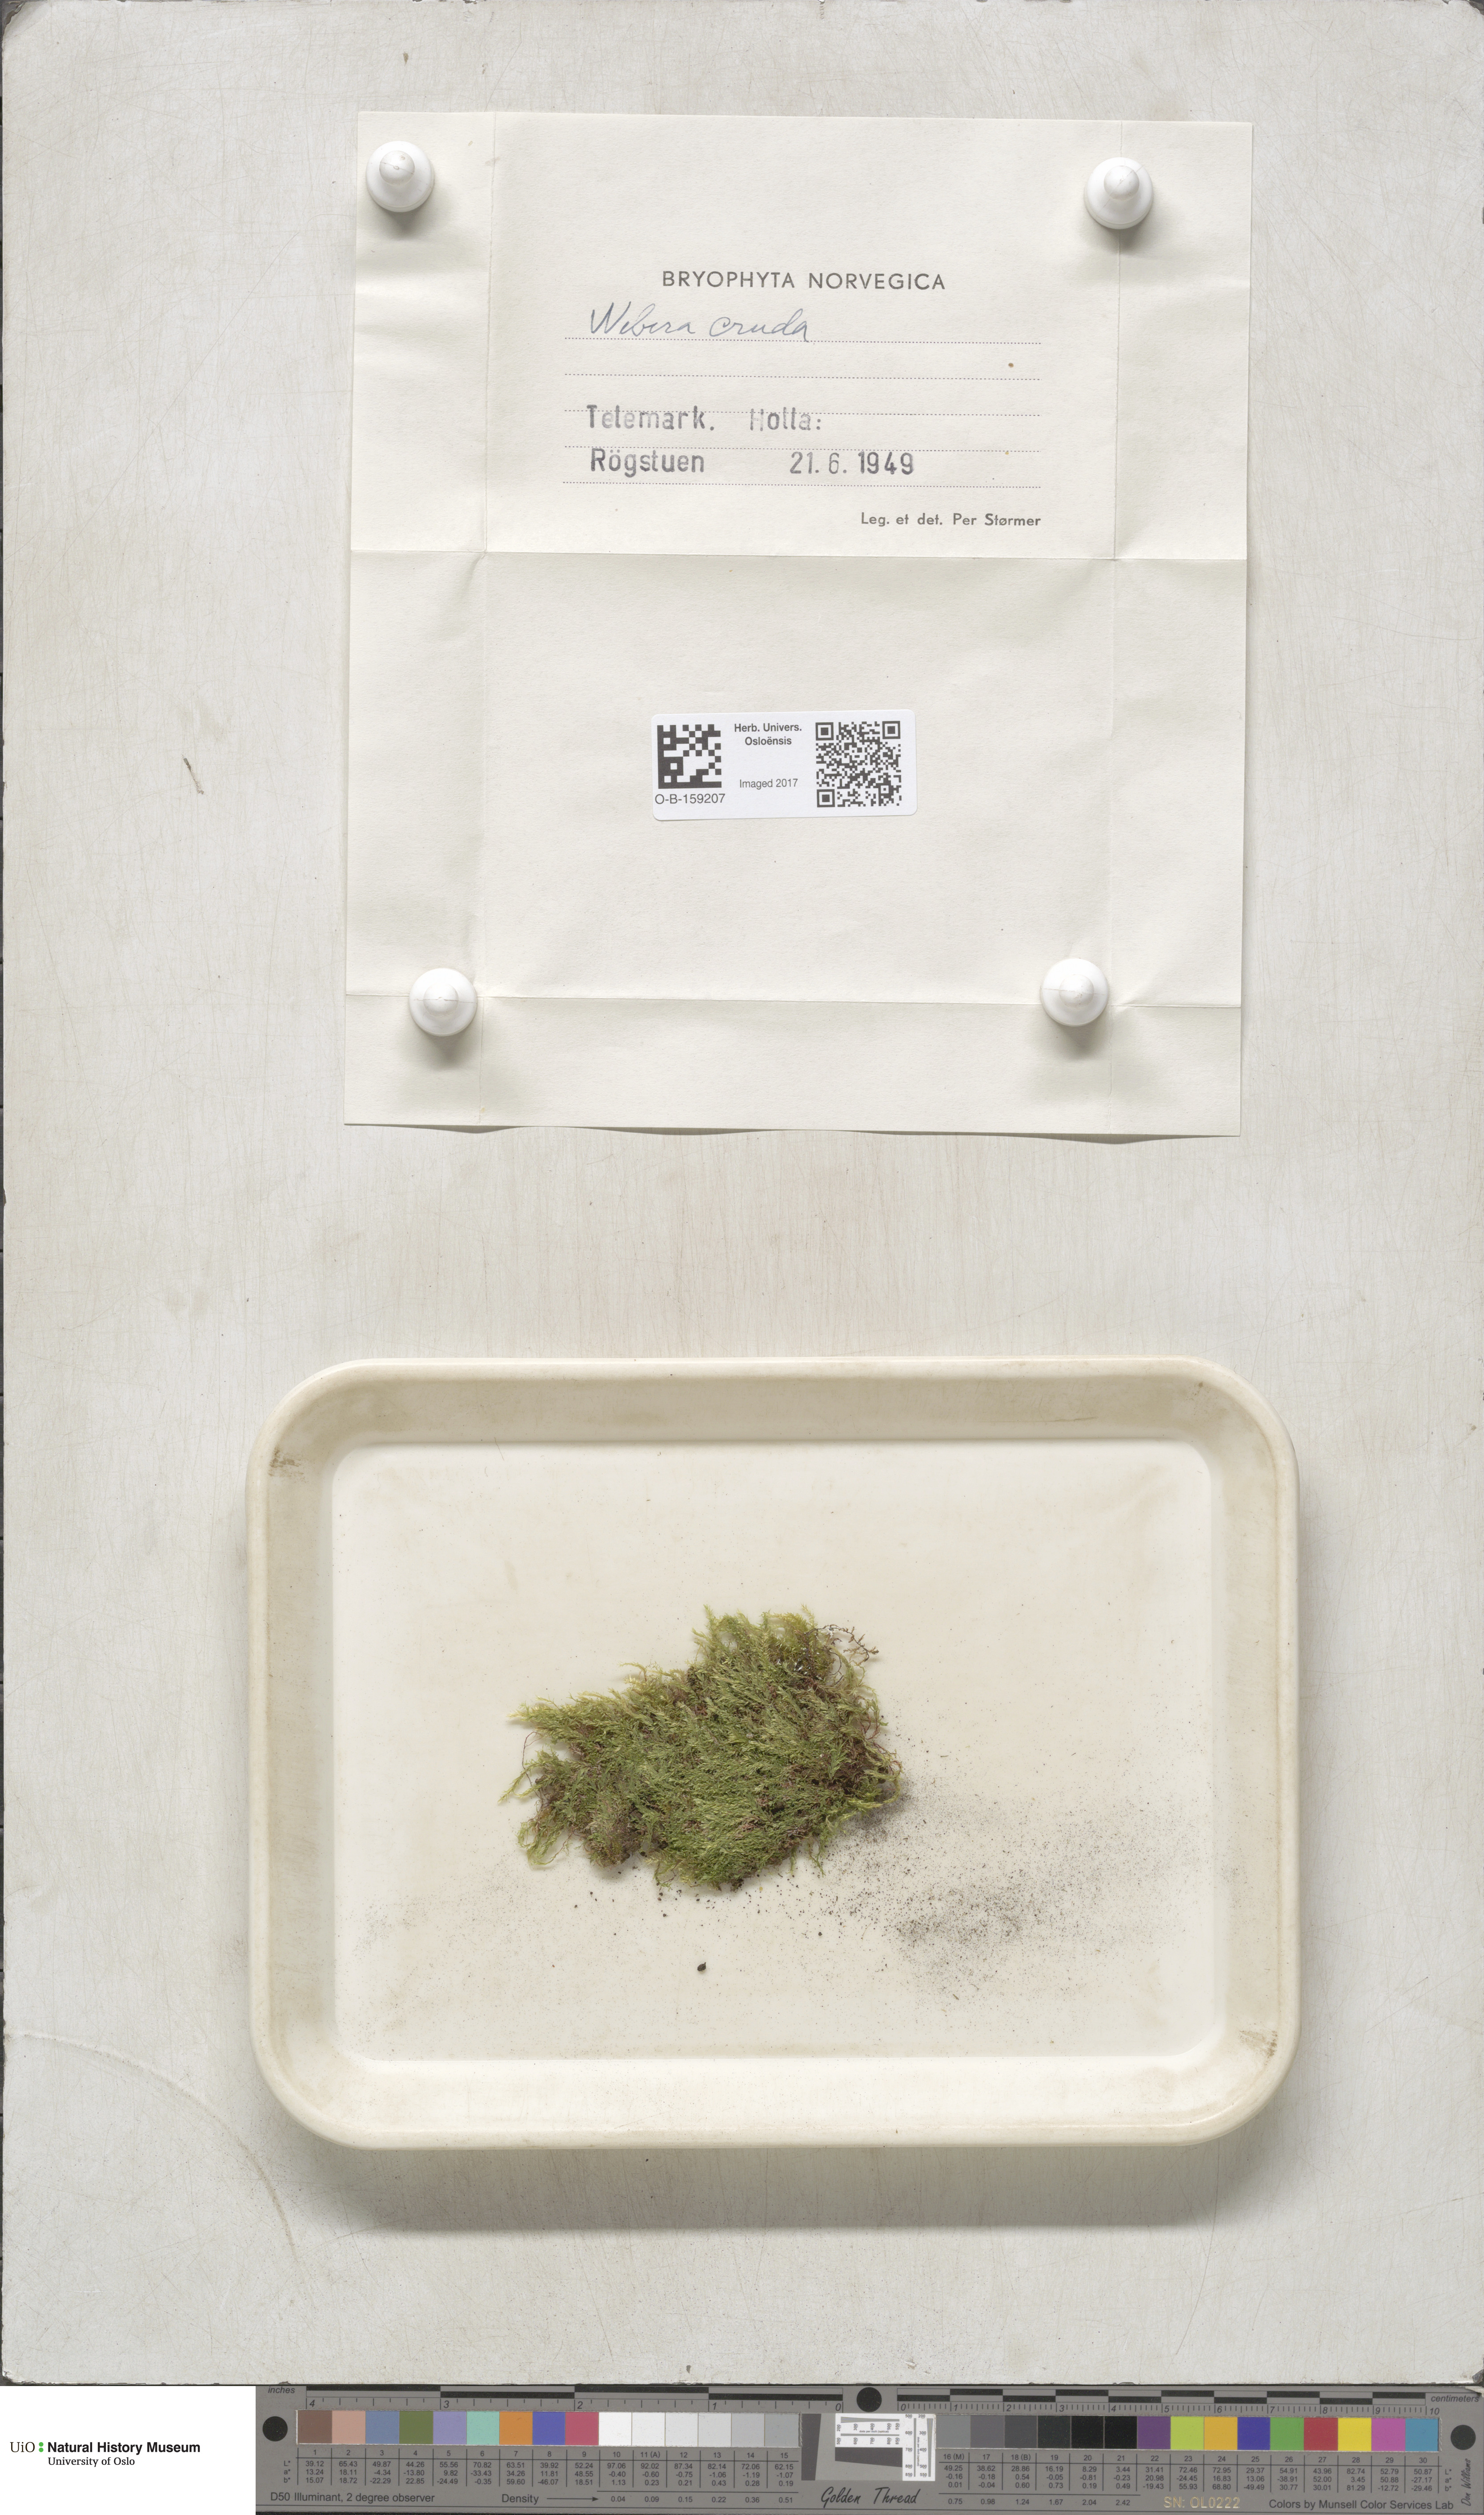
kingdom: Plantae
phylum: Bryophyta
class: Bryopsida
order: Bryales
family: Mniaceae
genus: Pohlia
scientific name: Pohlia cruda
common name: Opal nodding moss
